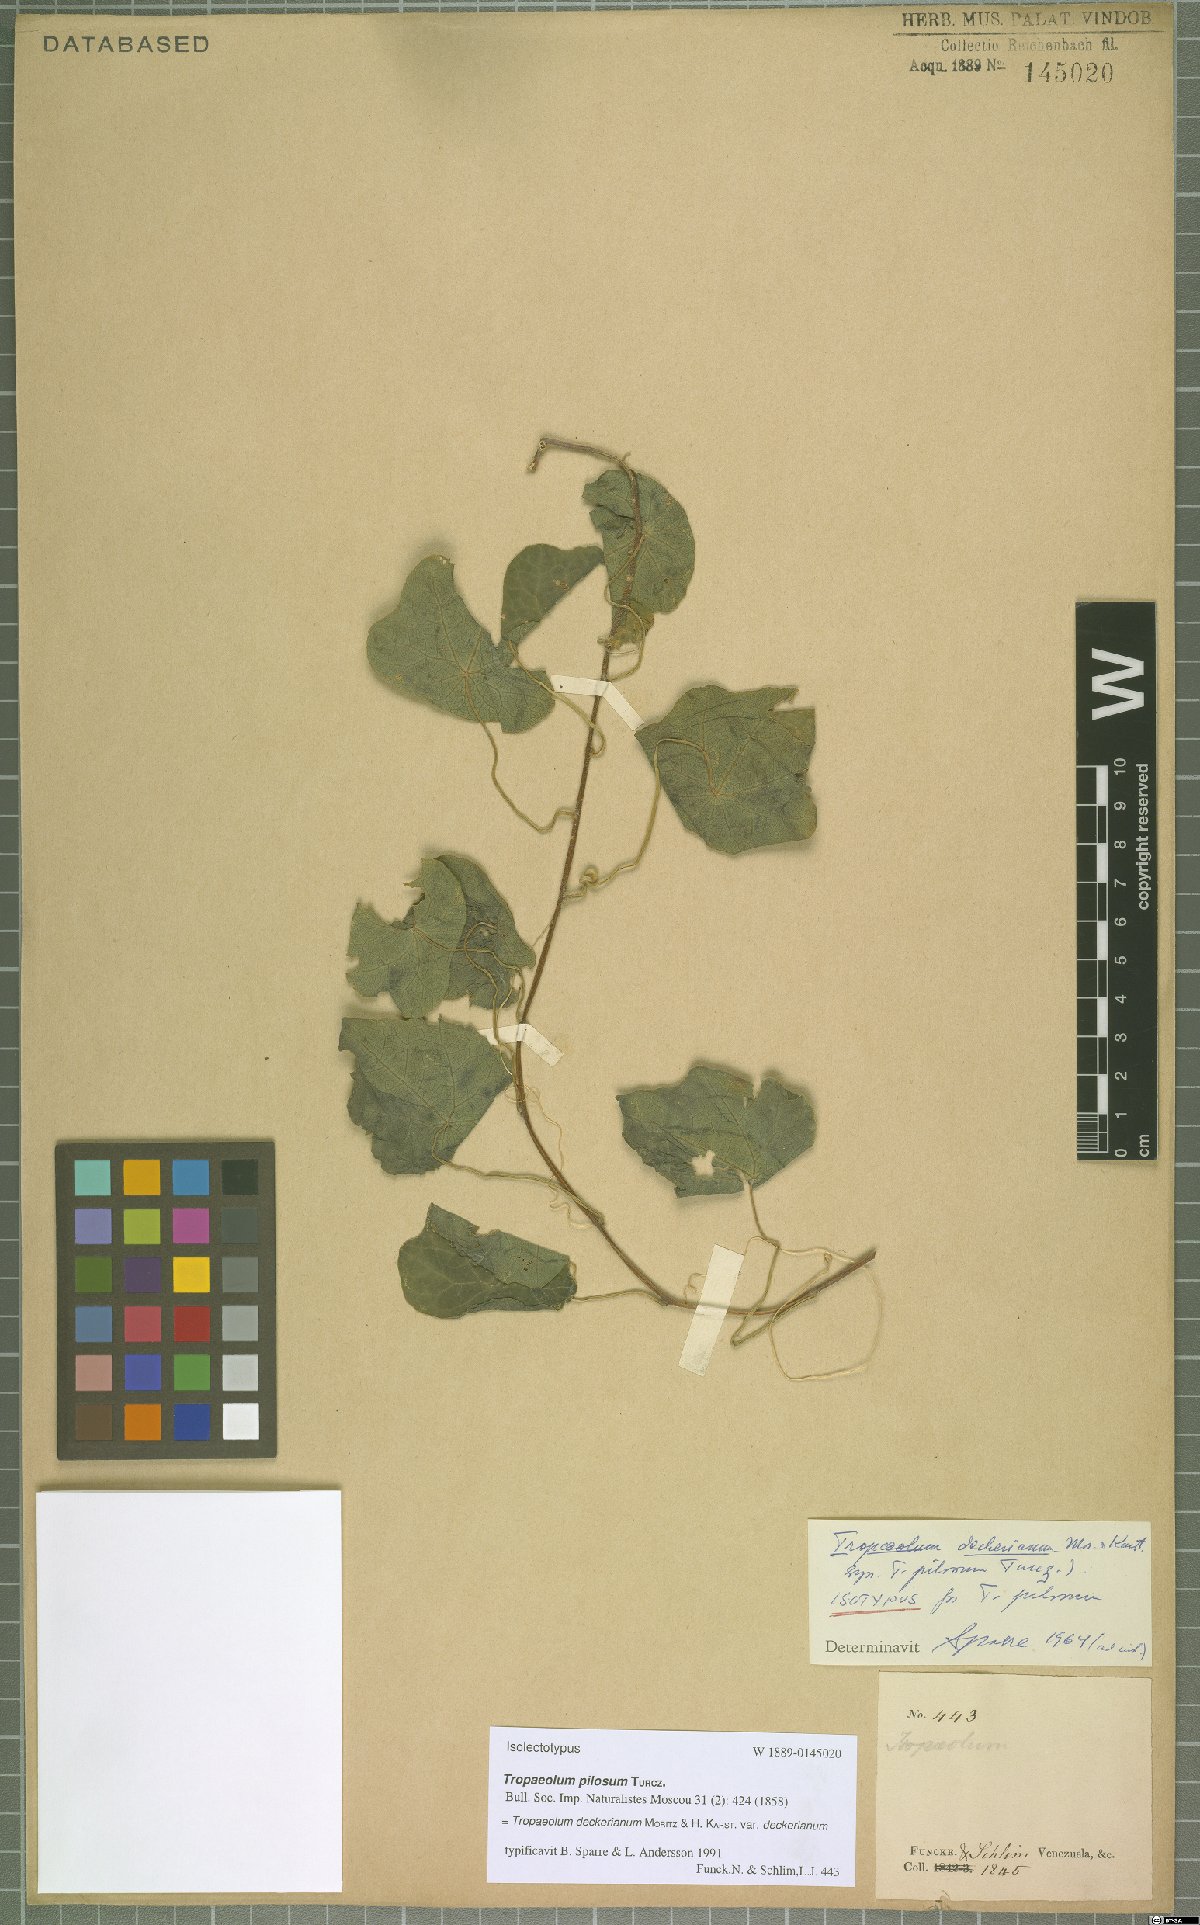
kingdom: Plantae
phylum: Tracheophyta
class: Magnoliopsida
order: Brassicales
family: Tropaeolaceae
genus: Tropaeolum
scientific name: Tropaeolum deckerianum
